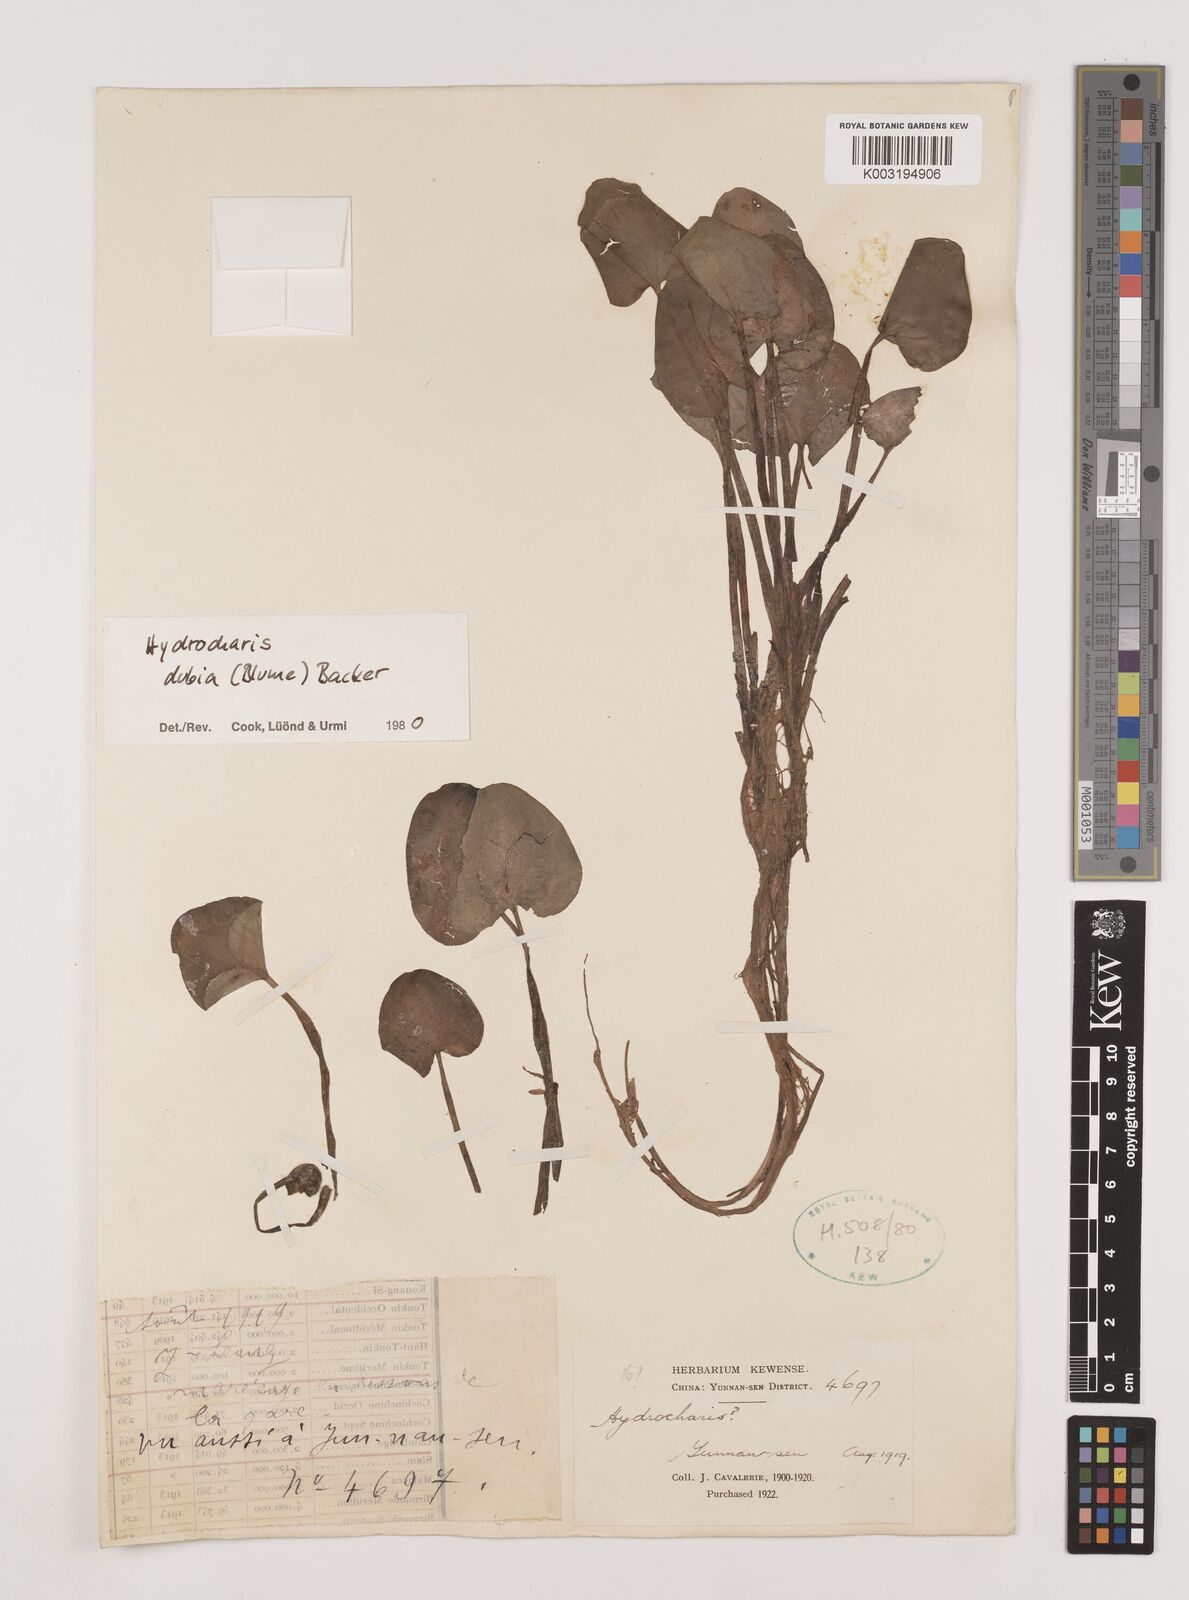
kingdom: Plantae
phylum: Tracheophyta
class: Liliopsida
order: Alismatales
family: Hydrocharitaceae
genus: Hydrocharis
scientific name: Hydrocharis dubia
